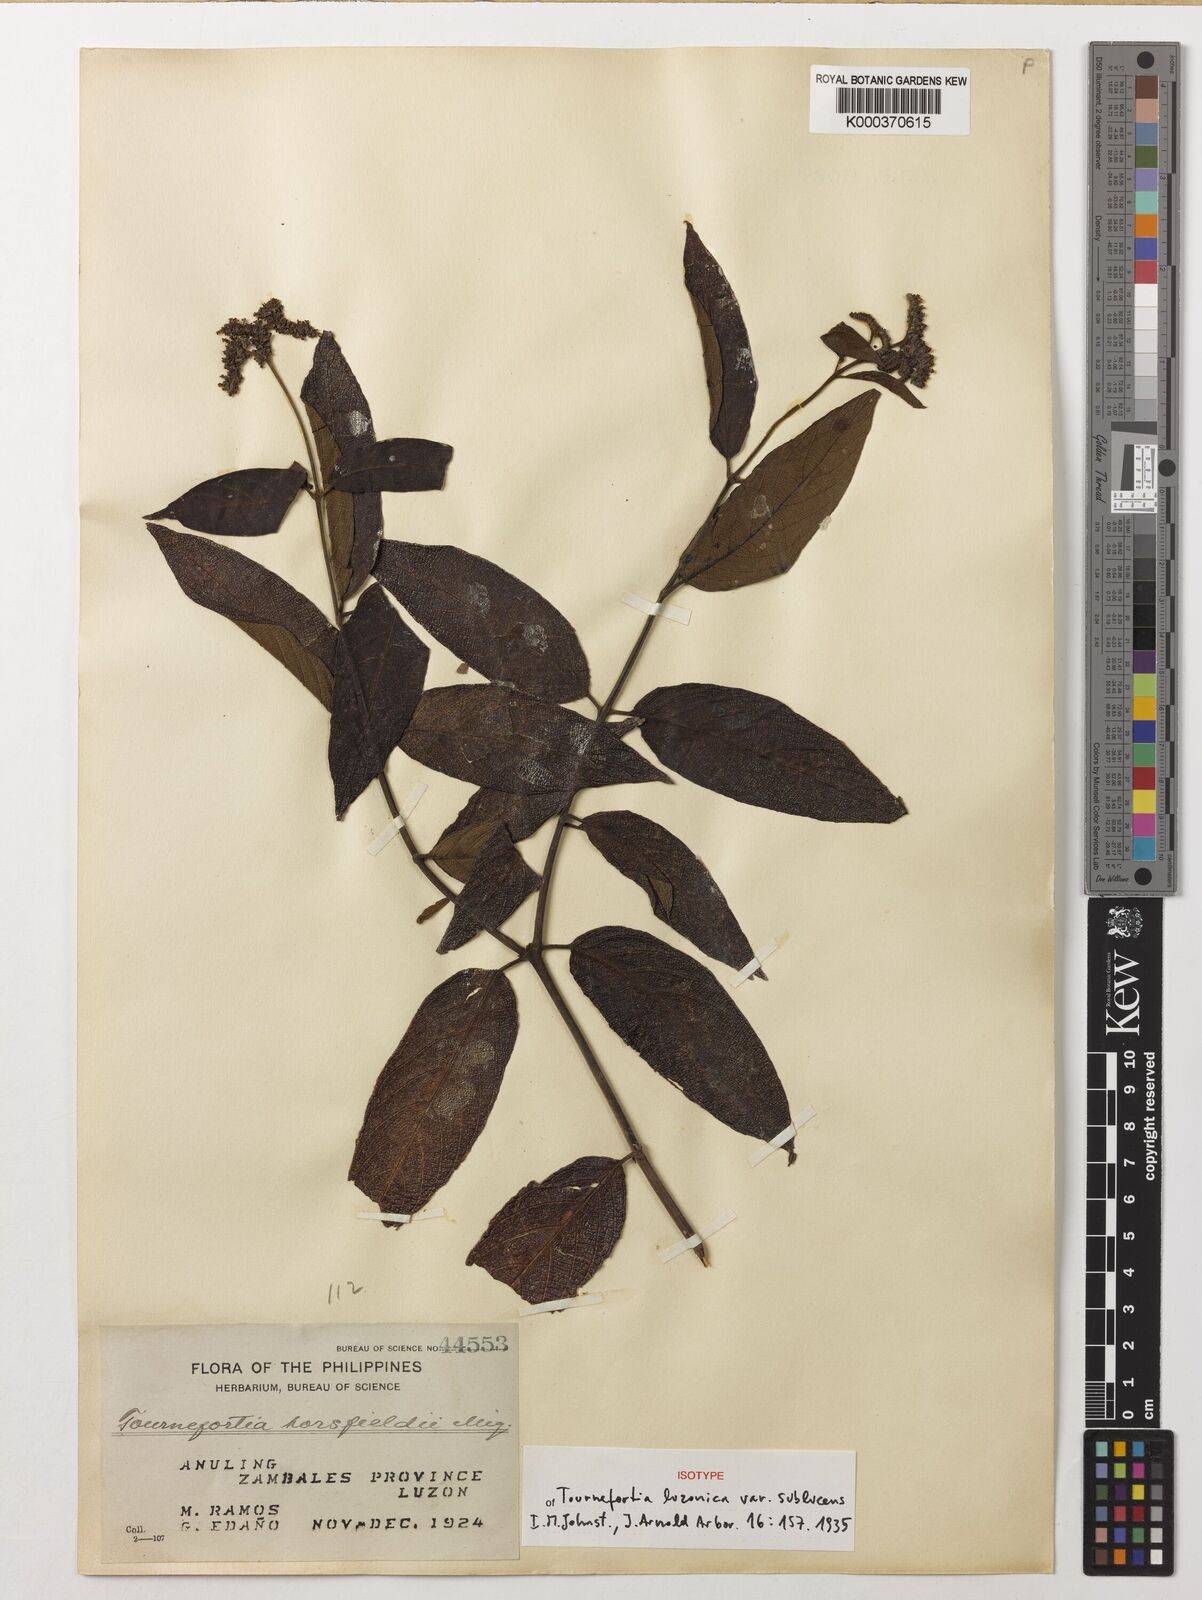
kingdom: Plantae
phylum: Tracheophyta
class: Magnoliopsida
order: Boraginales
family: Heliotropiaceae
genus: Heliotropium
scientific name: Heliotropium luzonicum
